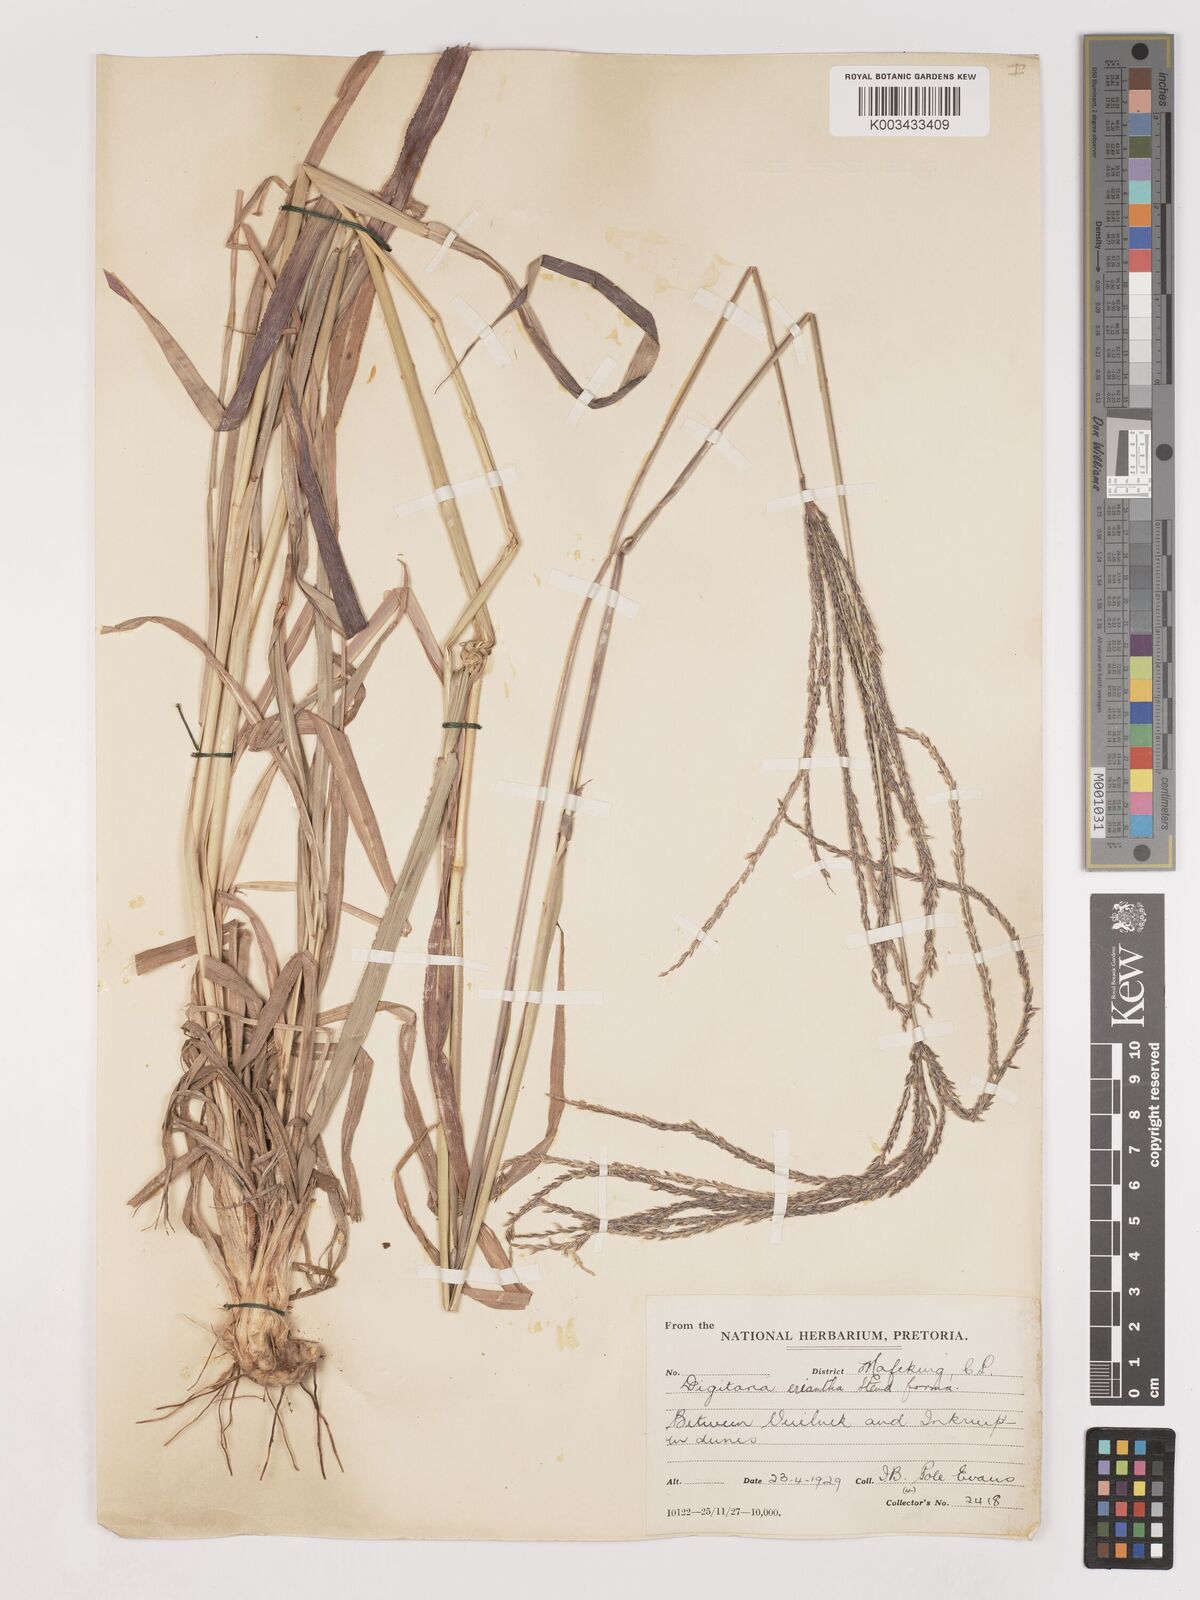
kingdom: Plantae
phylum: Tracheophyta
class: Liliopsida
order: Poales
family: Poaceae
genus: Digitaria
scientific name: Digitaria eriantha
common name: Digitgrass
